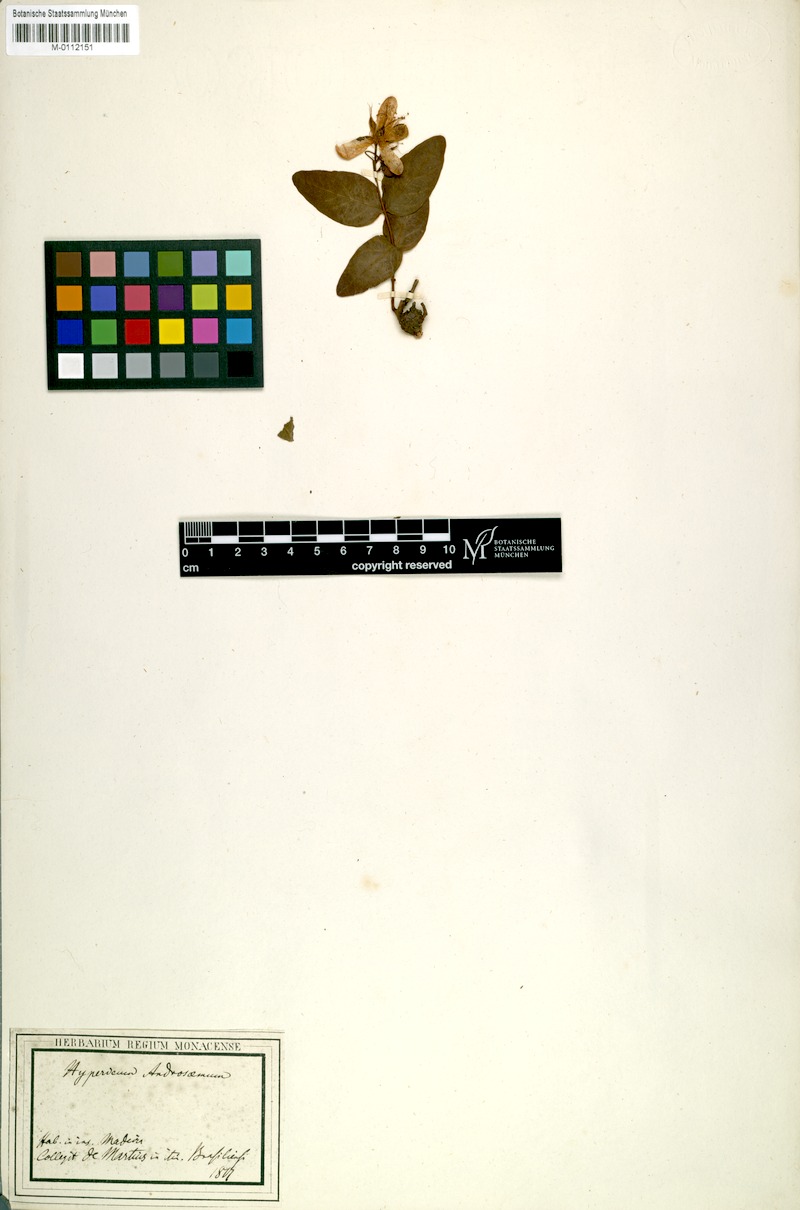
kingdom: Plantae
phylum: Tracheophyta
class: Magnoliopsida
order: Malpighiales
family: Hypericaceae
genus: Hypericum
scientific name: Hypericum androsaemum
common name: Sweet-amber
